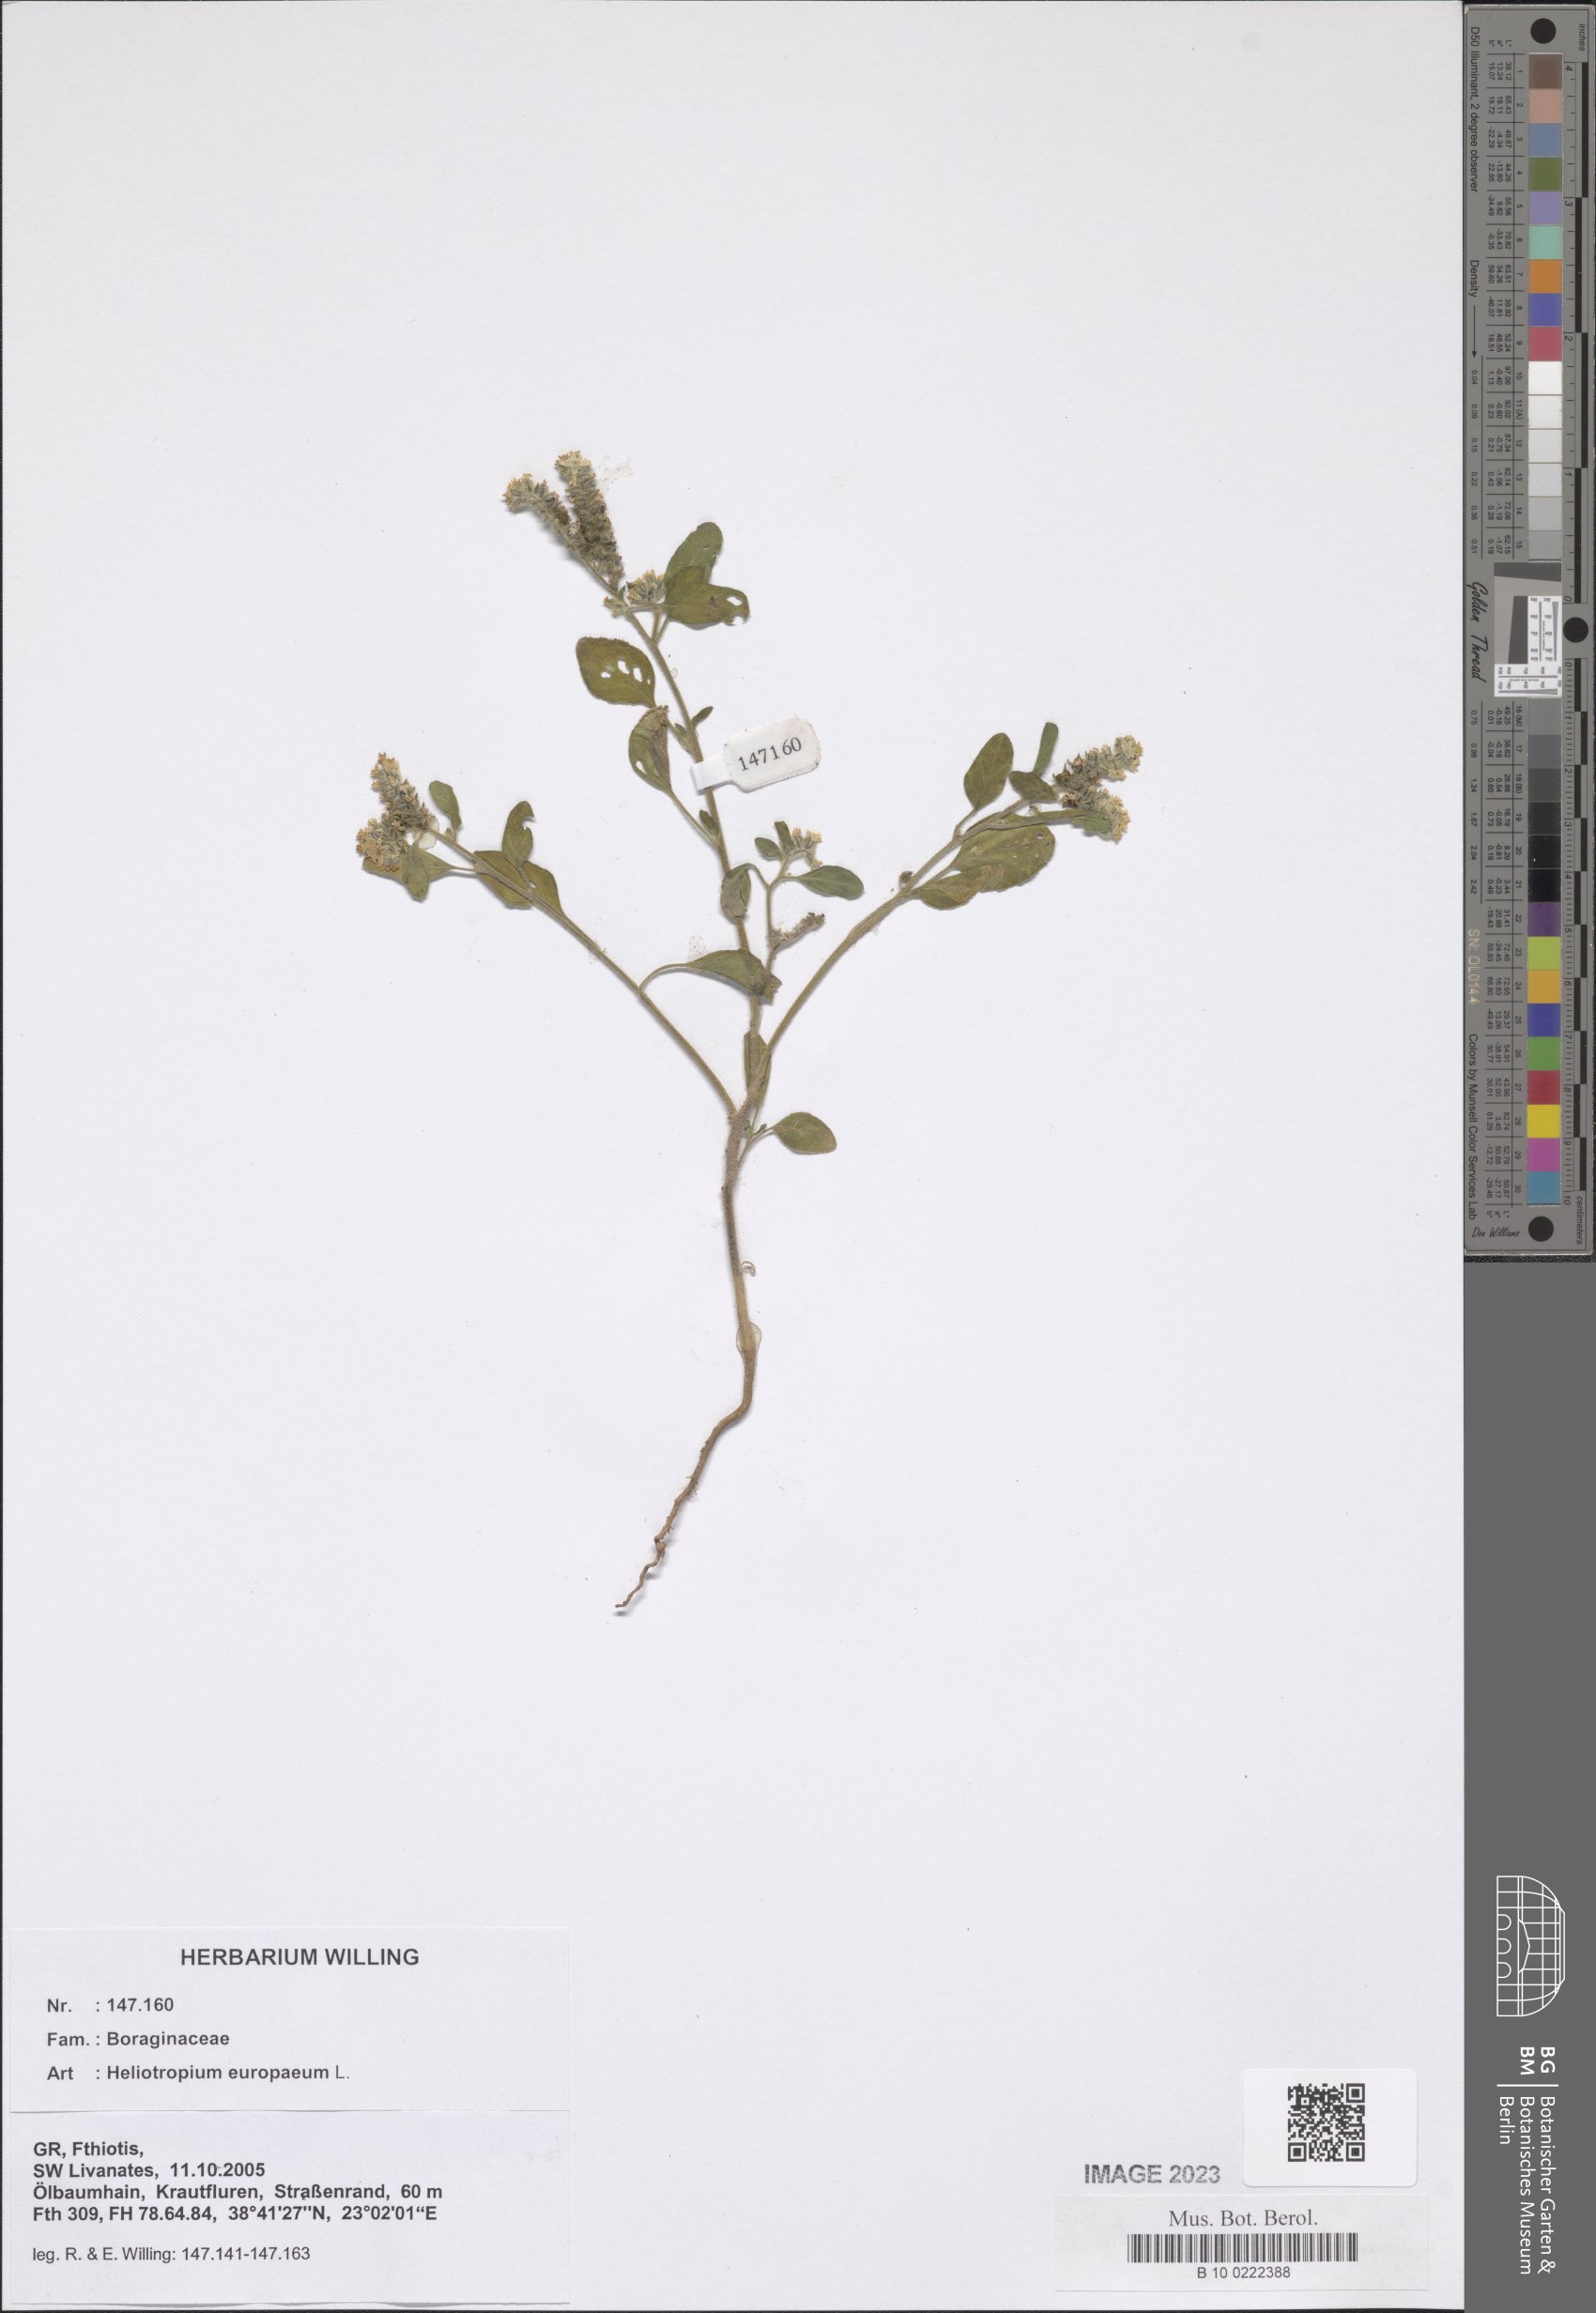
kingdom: Plantae
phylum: Tracheophyta
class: Magnoliopsida
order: Boraginales
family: Heliotropiaceae
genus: Heliotropium
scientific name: Heliotropium europaeum
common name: European heliotrope
